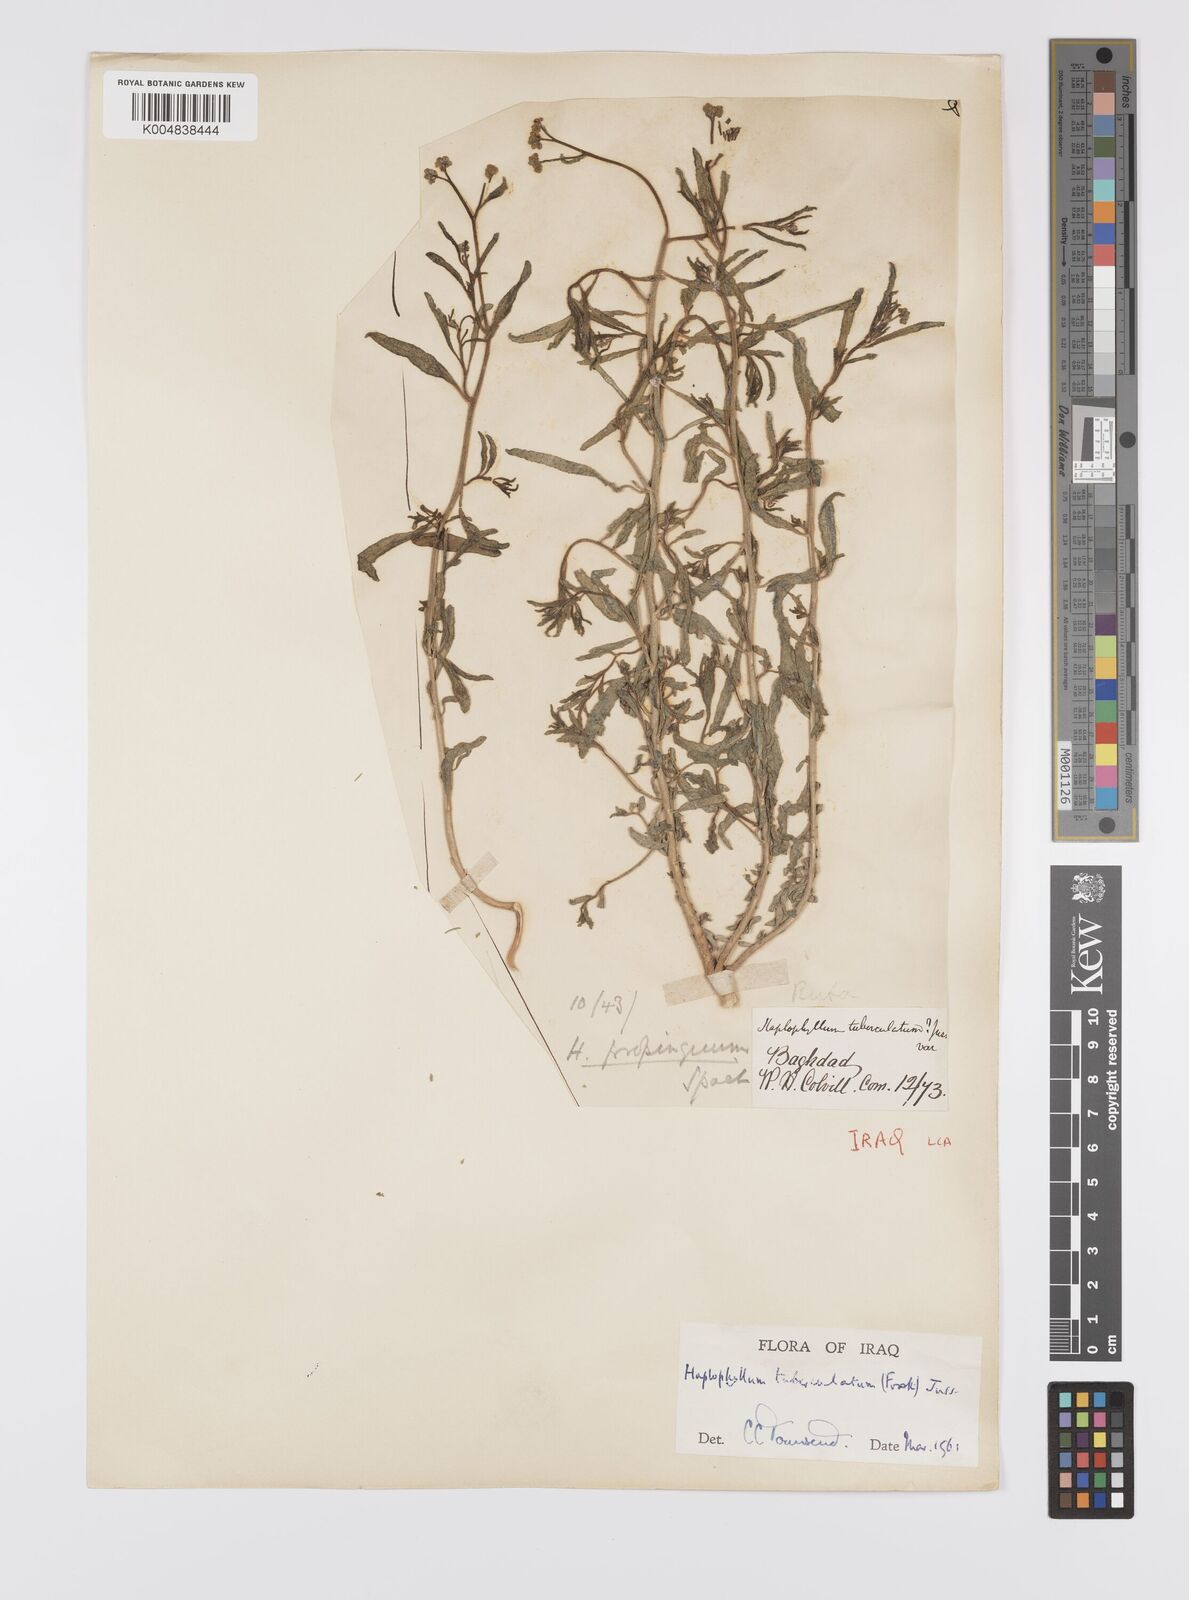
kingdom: Plantae
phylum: Tracheophyta
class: Magnoliopsida
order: Sapindales
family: Rutaceae
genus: Haplophyllum
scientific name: Haplophyllum tuberculatum
